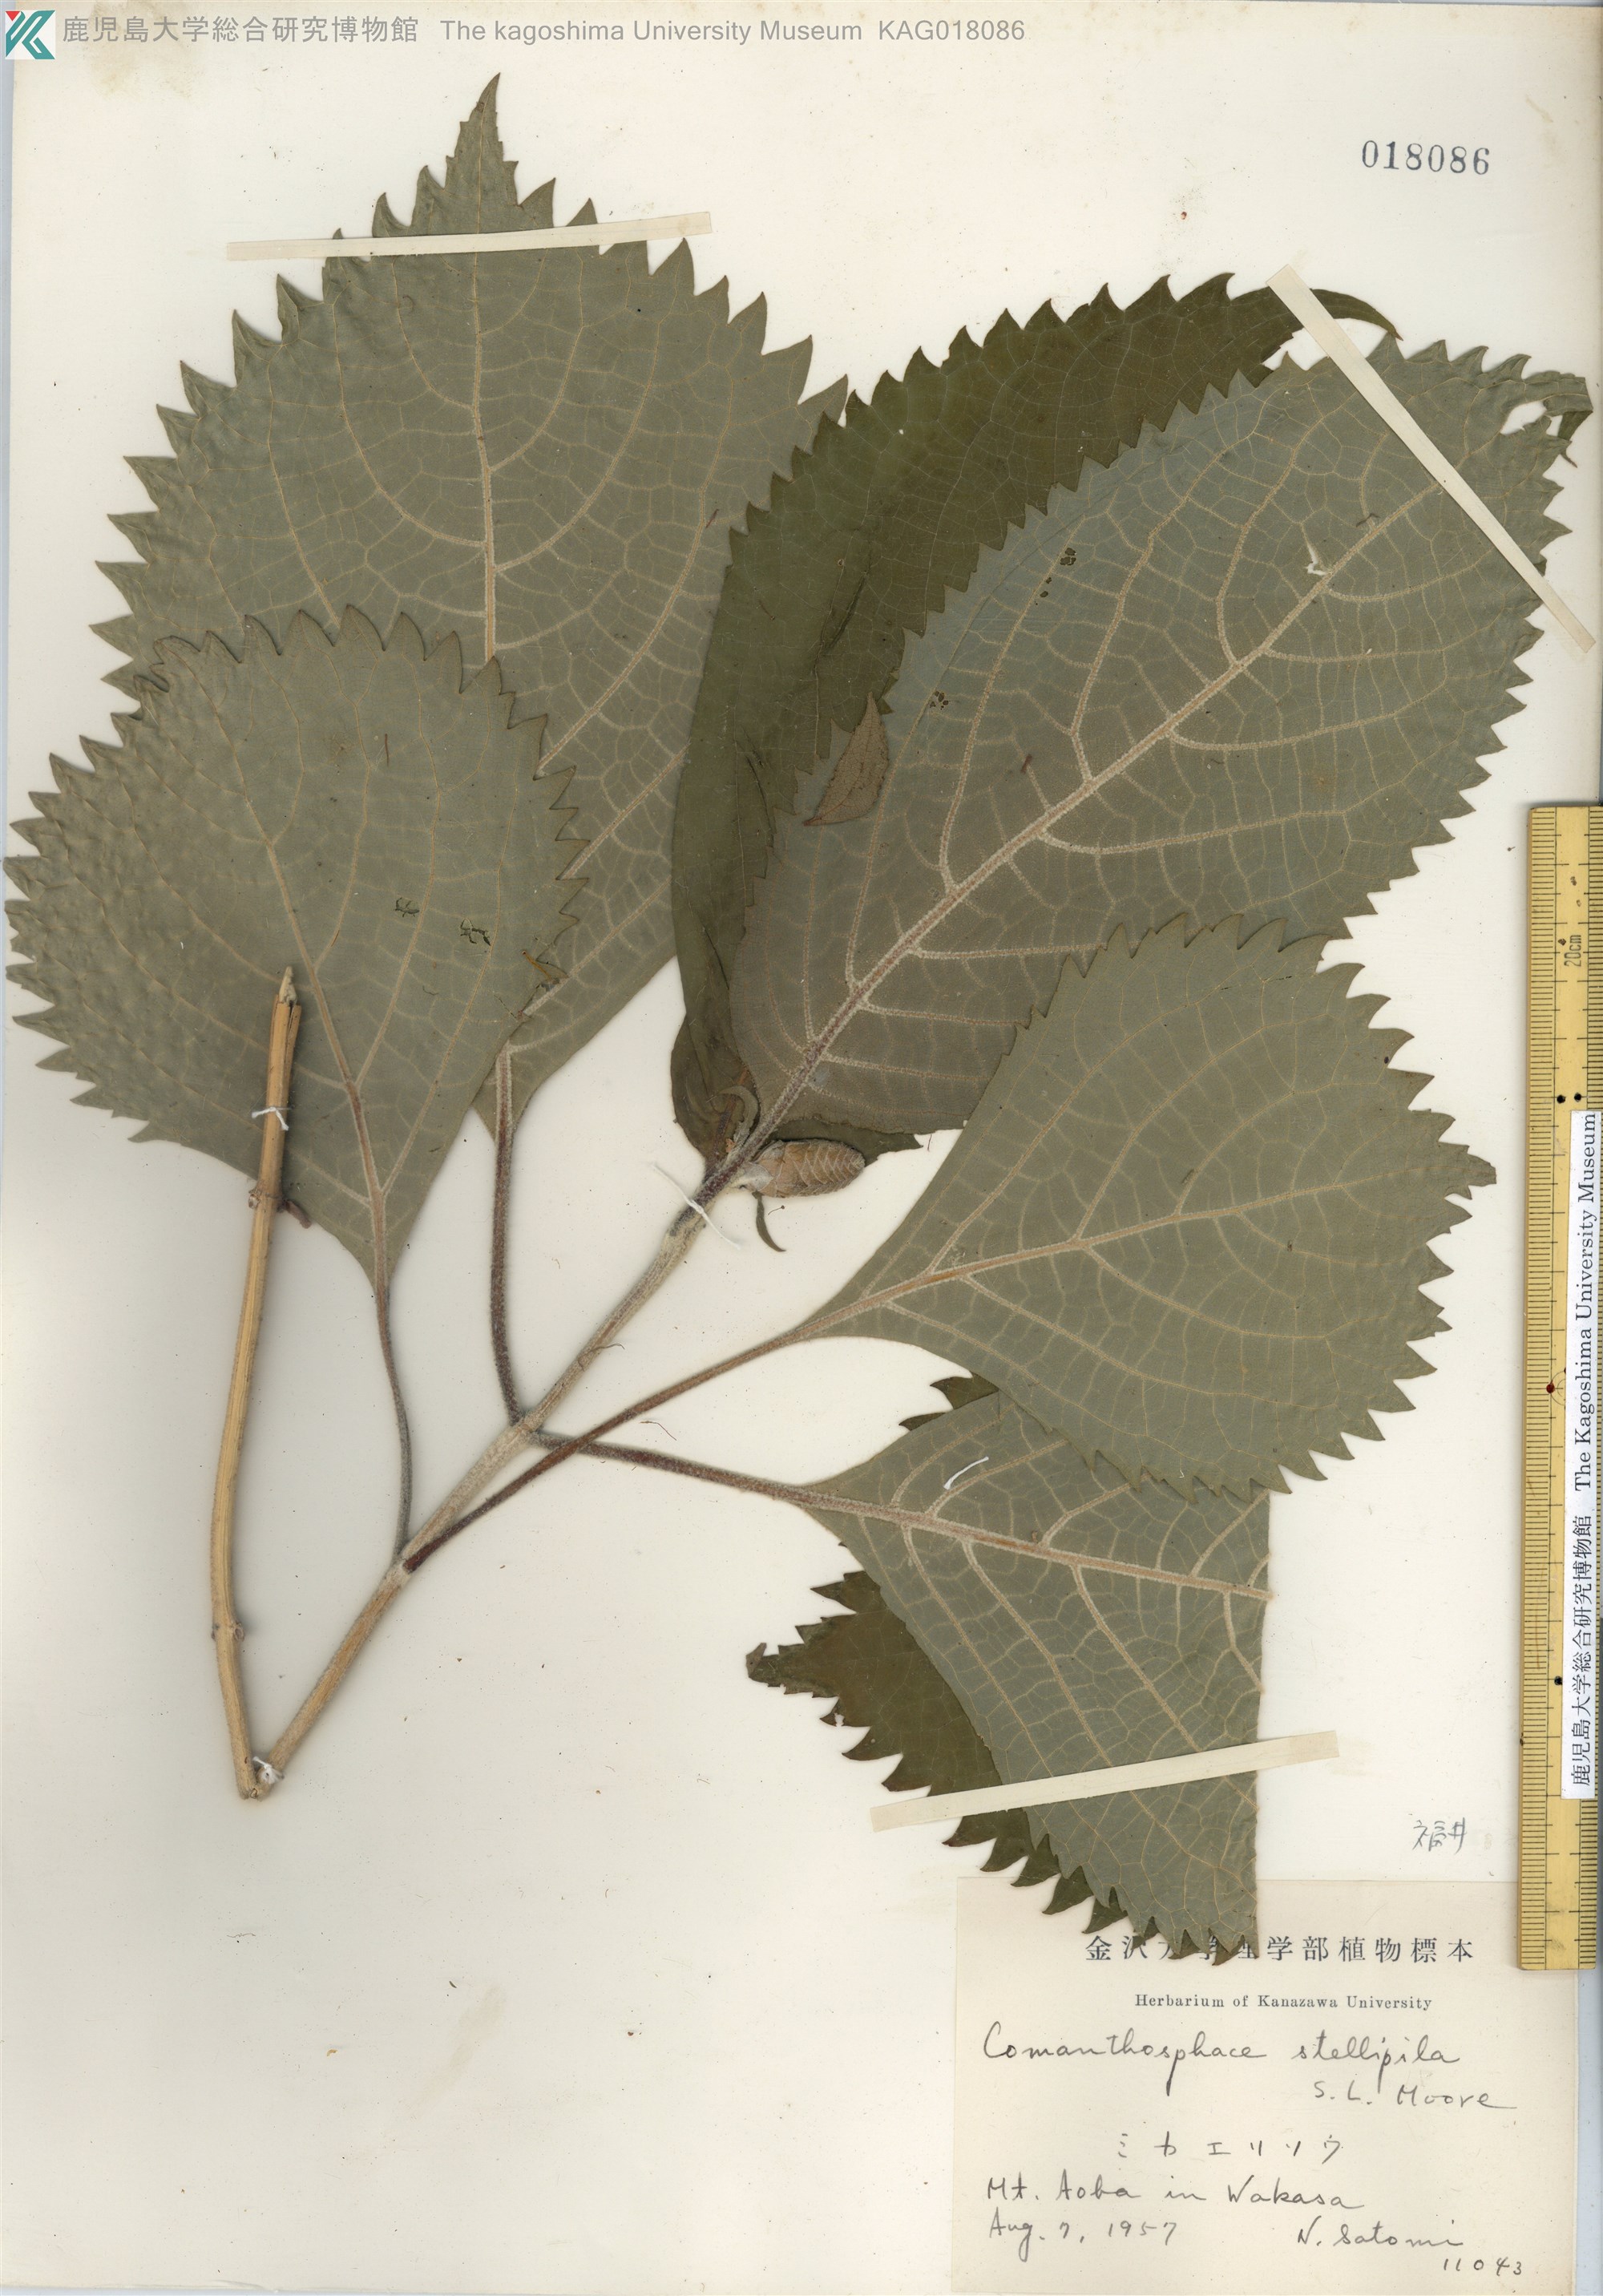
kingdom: Plantae
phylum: Tracheophyta
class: Magnoliopsida
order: Lamiales
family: Lamiaceae
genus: Comanthosphace
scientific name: Comanthosphace stellipila
